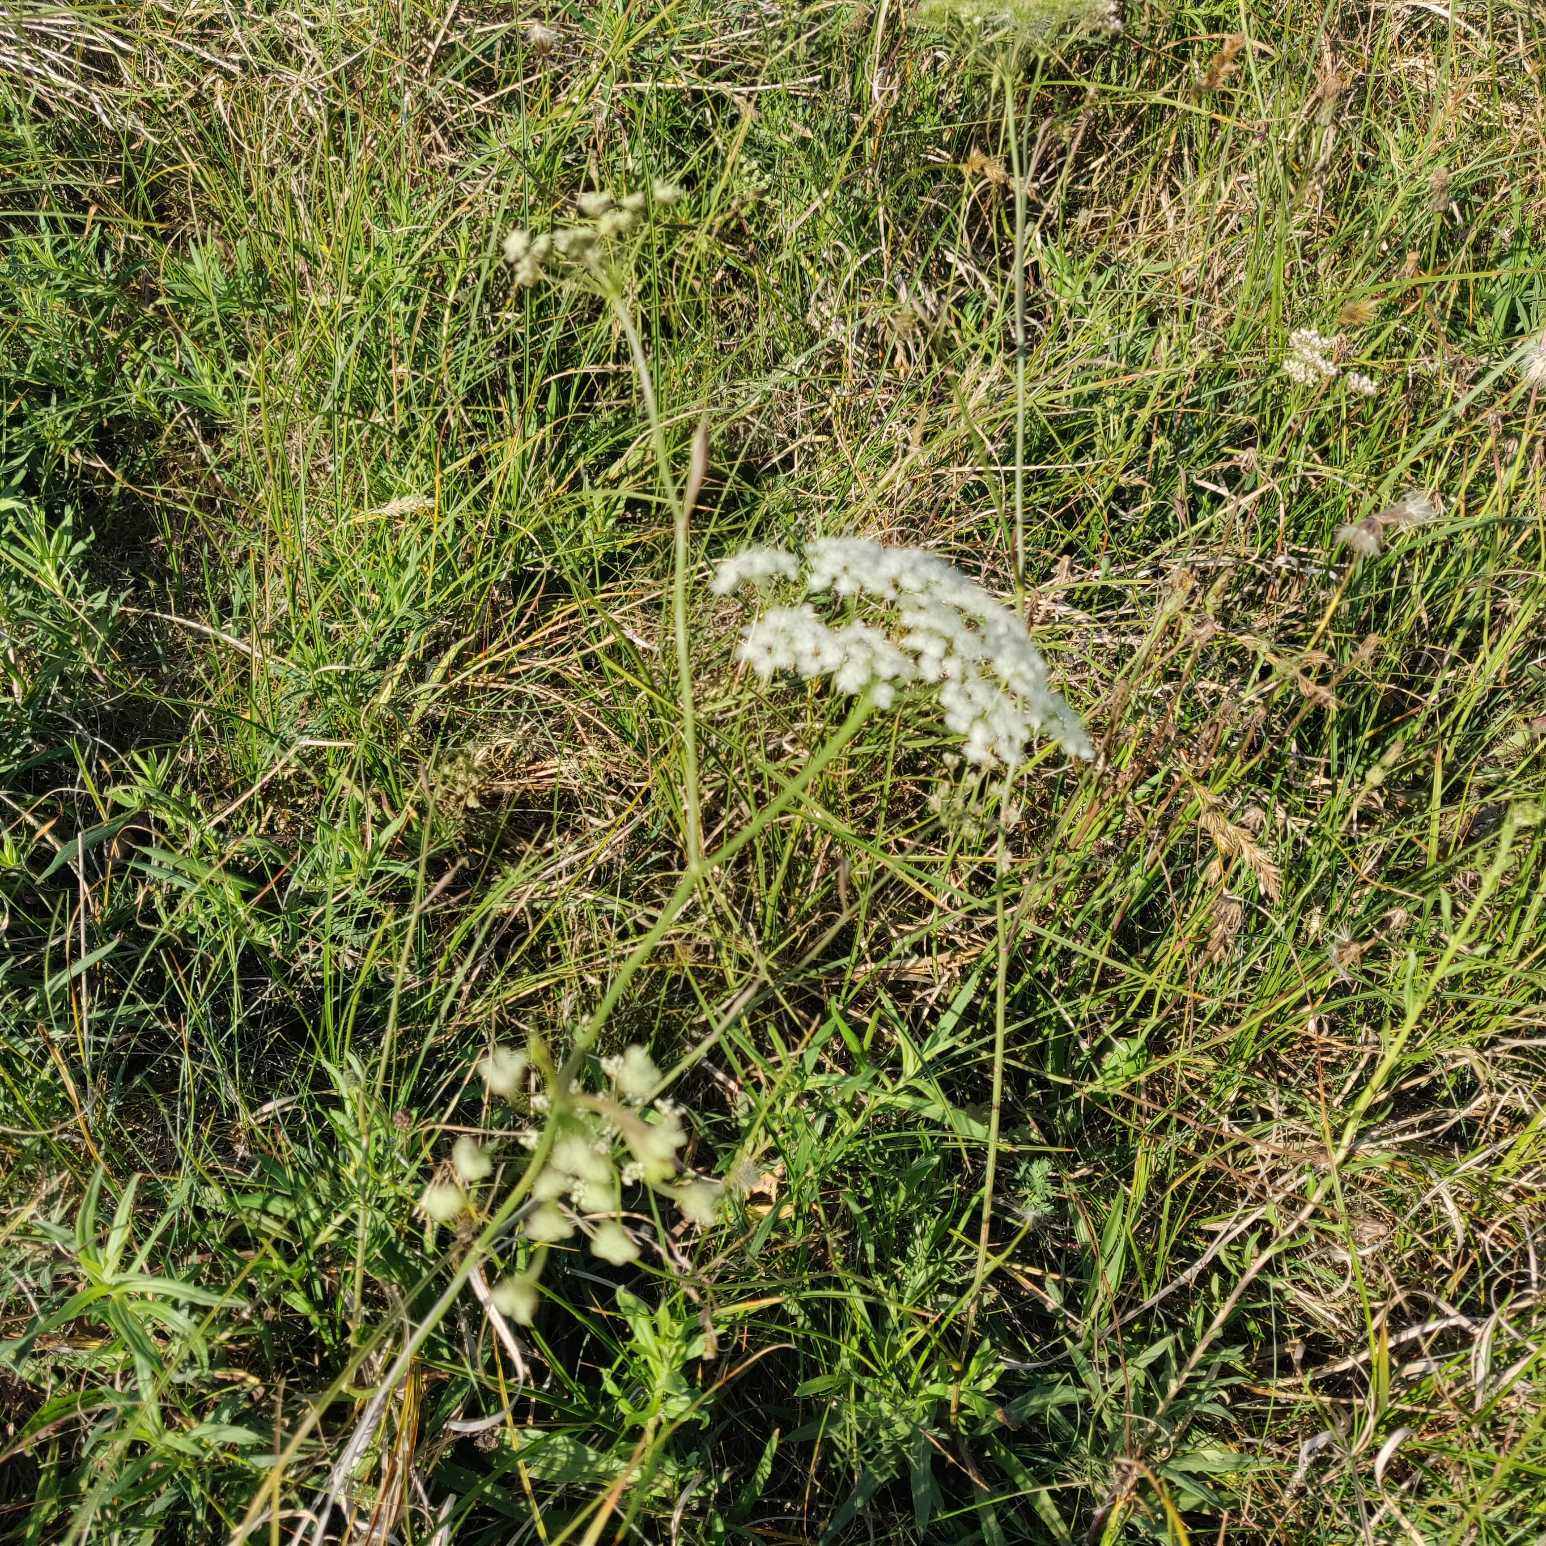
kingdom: Plantae
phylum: Tracheophyta
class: Magnoliopsida
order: Apiales
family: Apiaceae
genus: Pimpinella
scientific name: Pimpinella saxifraga
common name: Almindelig pimpinelle
